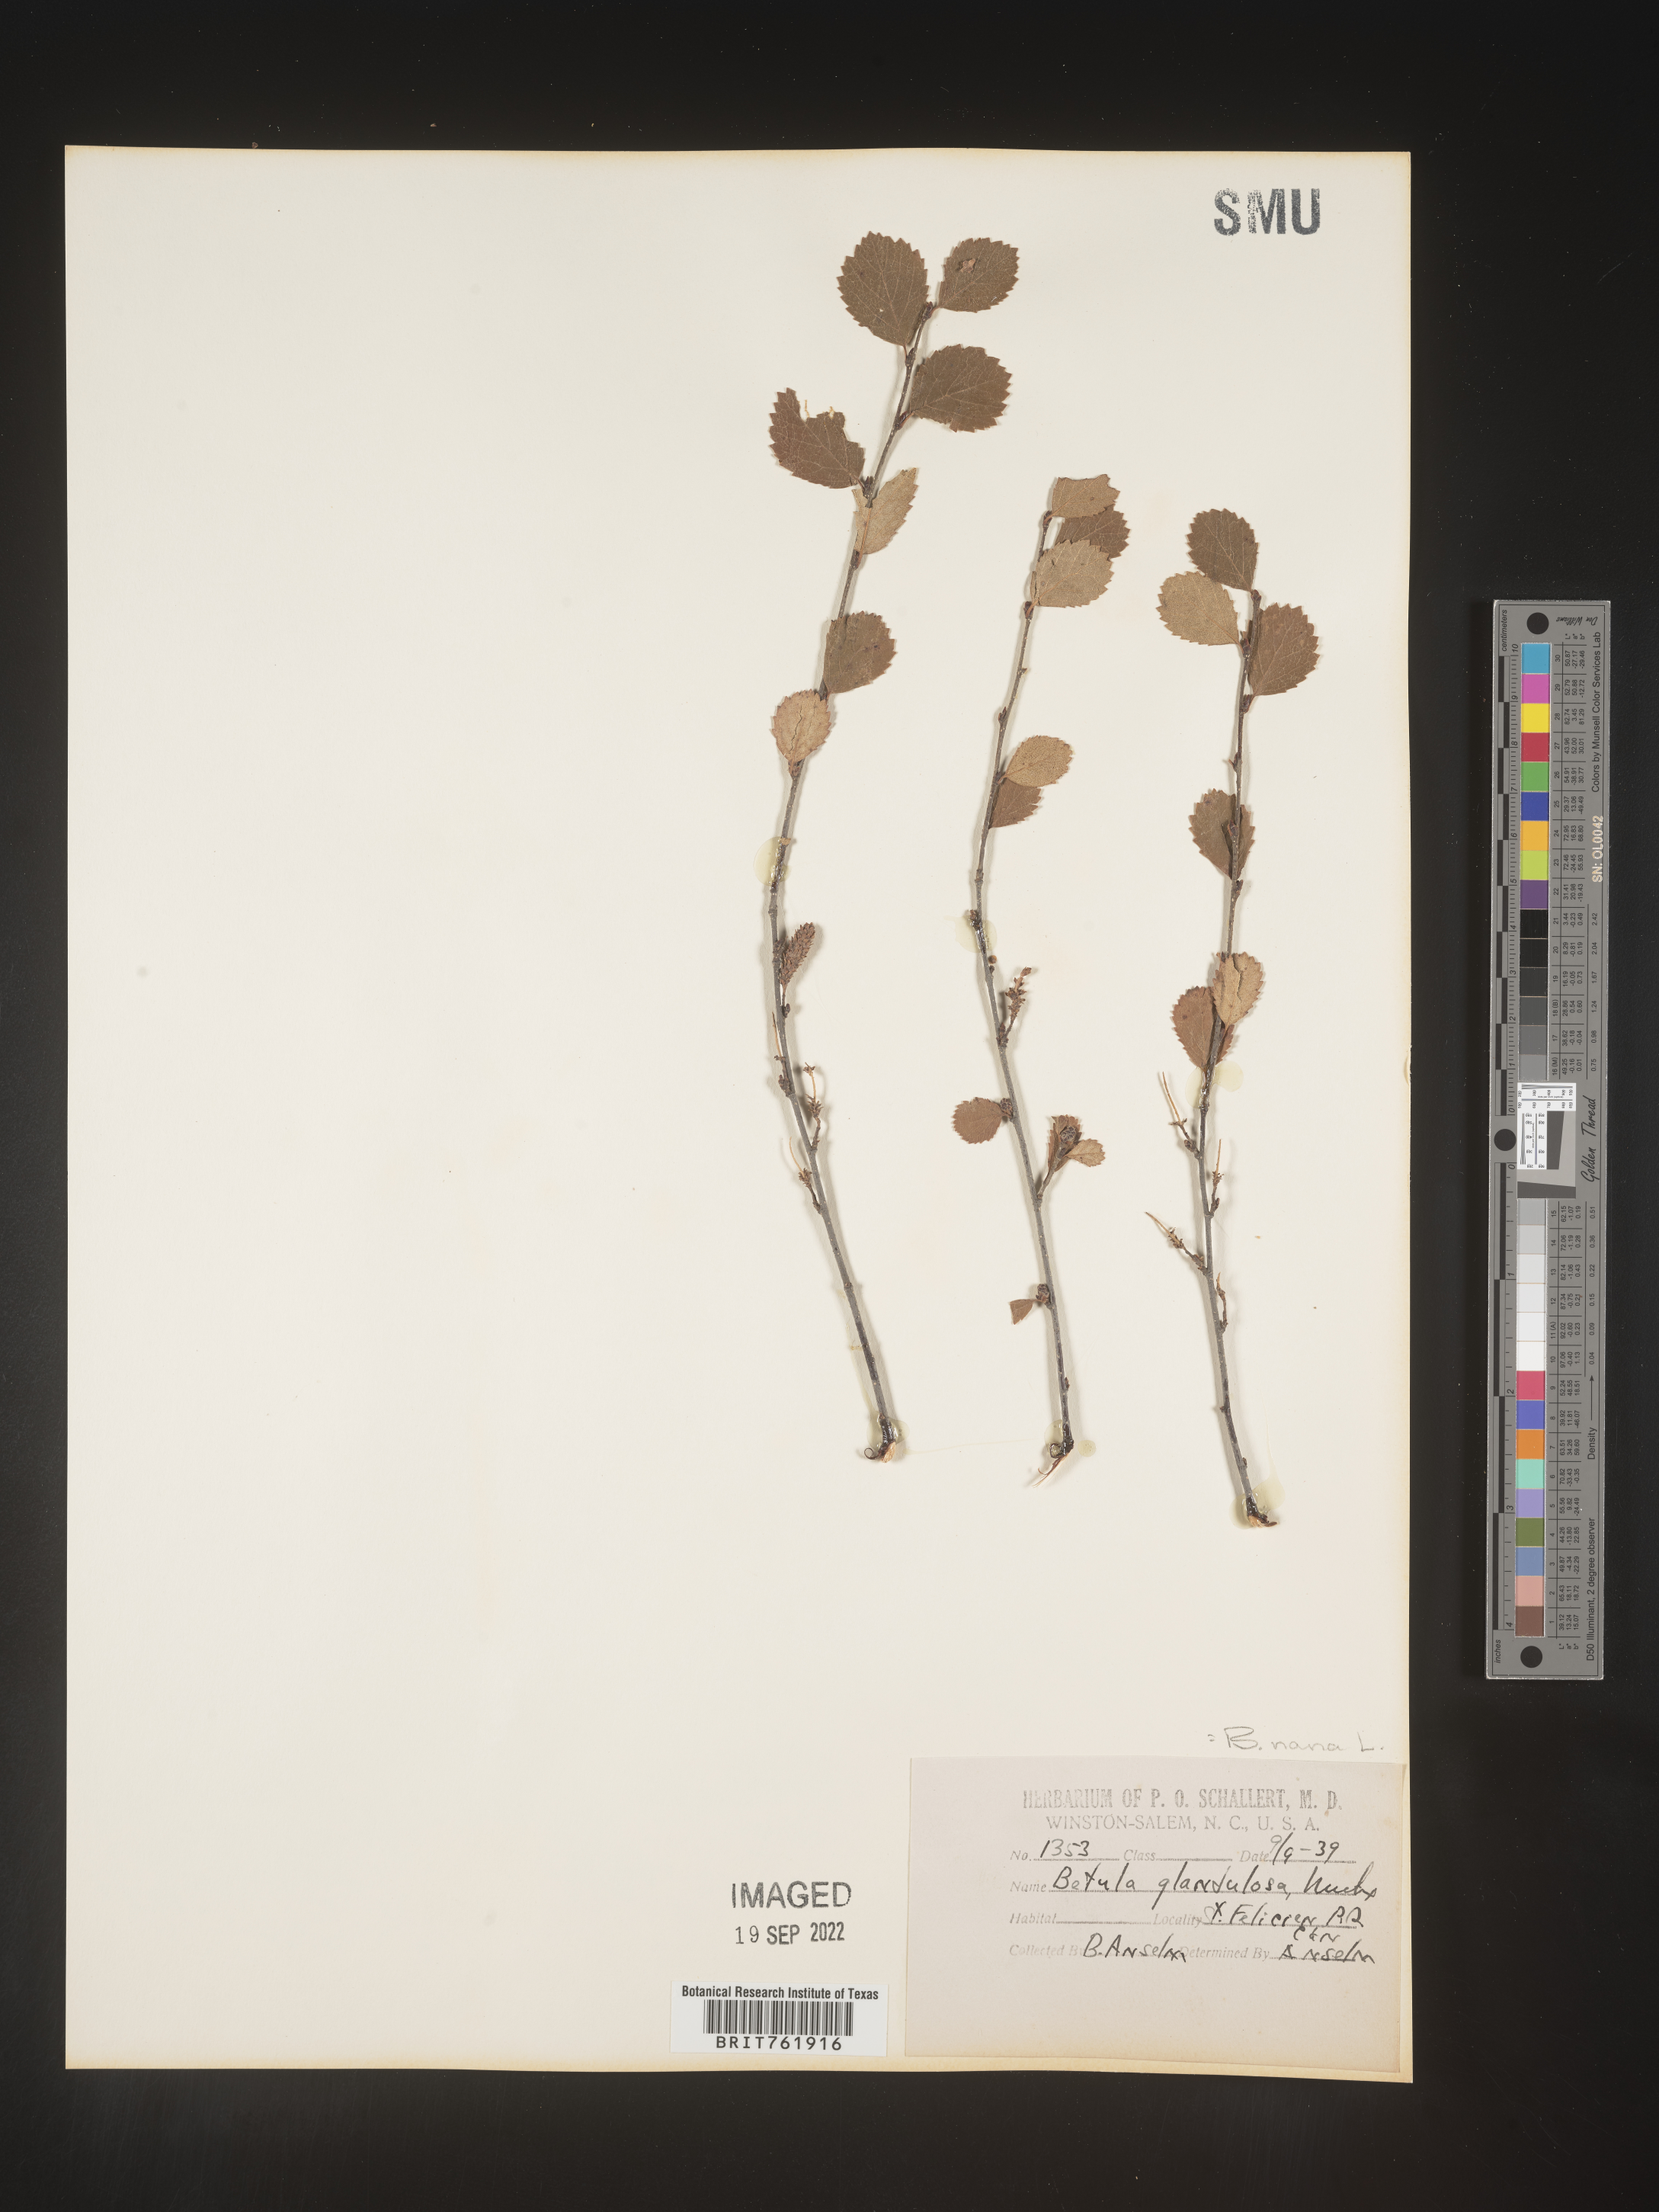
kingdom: Plantae
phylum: Tracheophyta
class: Magnoliopsida
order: Fagales
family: Betulaceae
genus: Betula
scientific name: Betula nana
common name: Arctic dwarf birch
